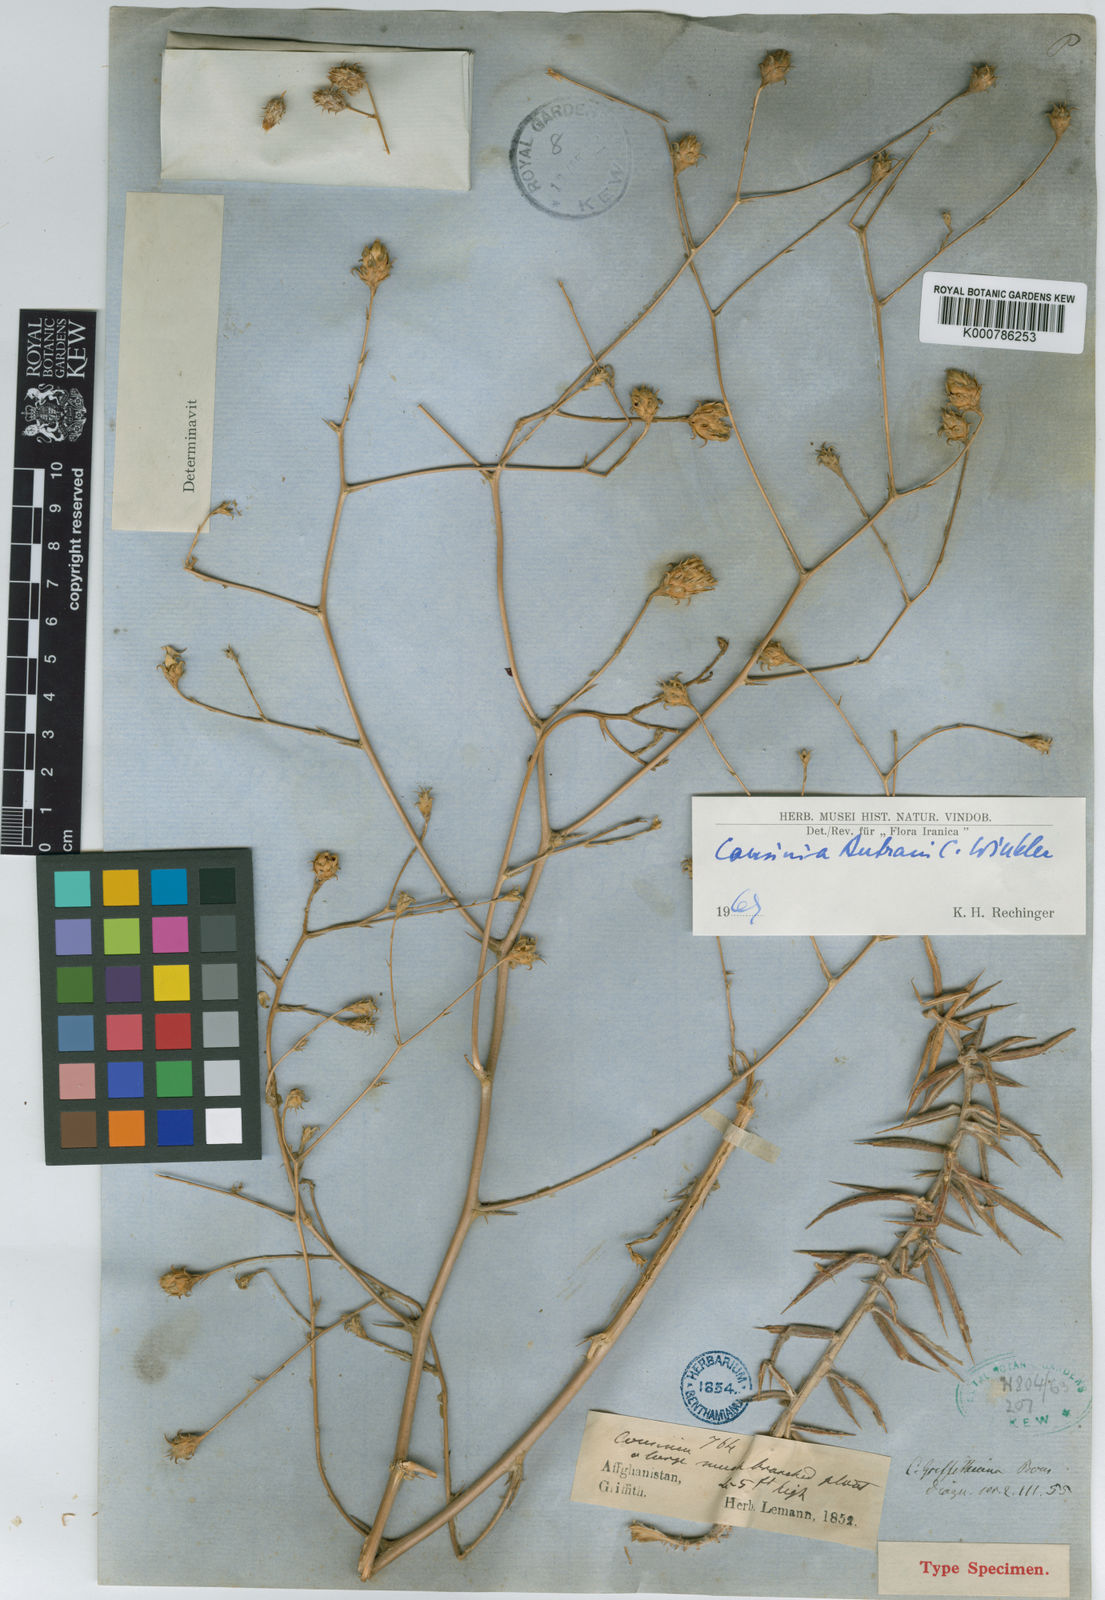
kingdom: Plantae
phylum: Tracheophyta
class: Magnoliopsida
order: Asterales
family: Asteraceae
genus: Cousinia
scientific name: Cousinia autranii
